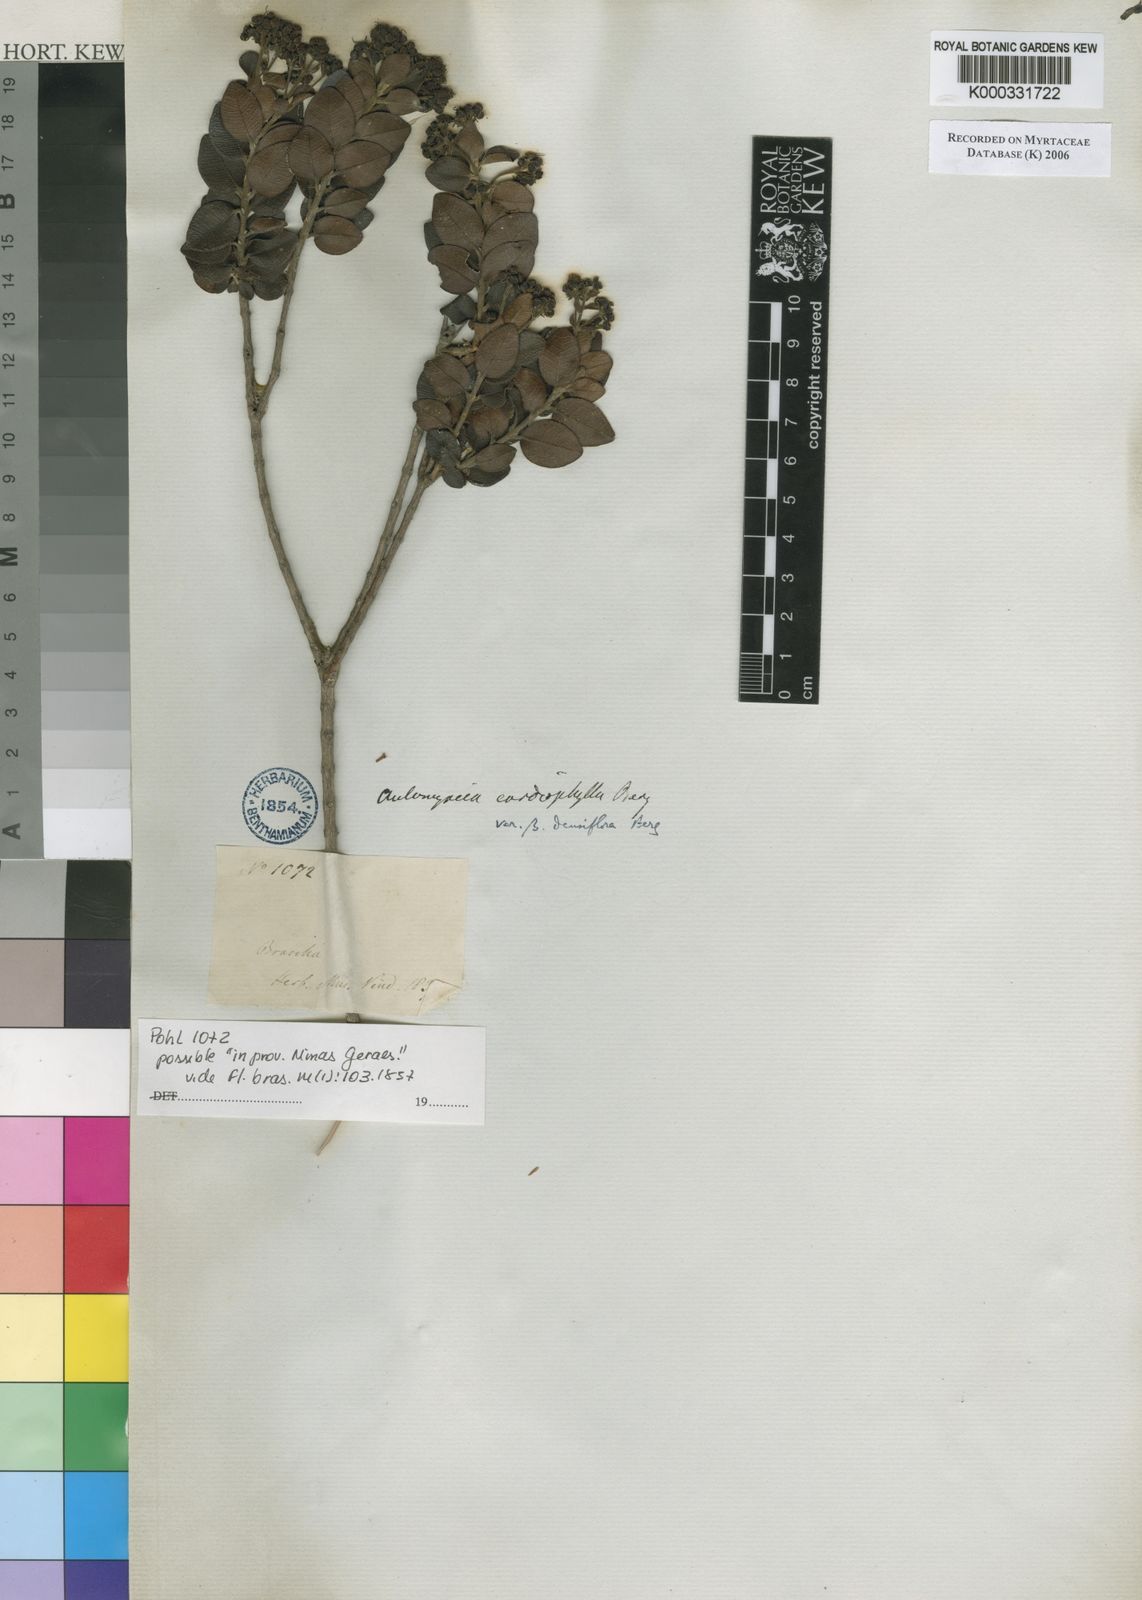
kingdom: Plantae
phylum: Tracheophyta
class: Magnoliopsida
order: Myrtales
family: Myrtaceae
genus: Myrcia
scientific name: Myrcia altera
